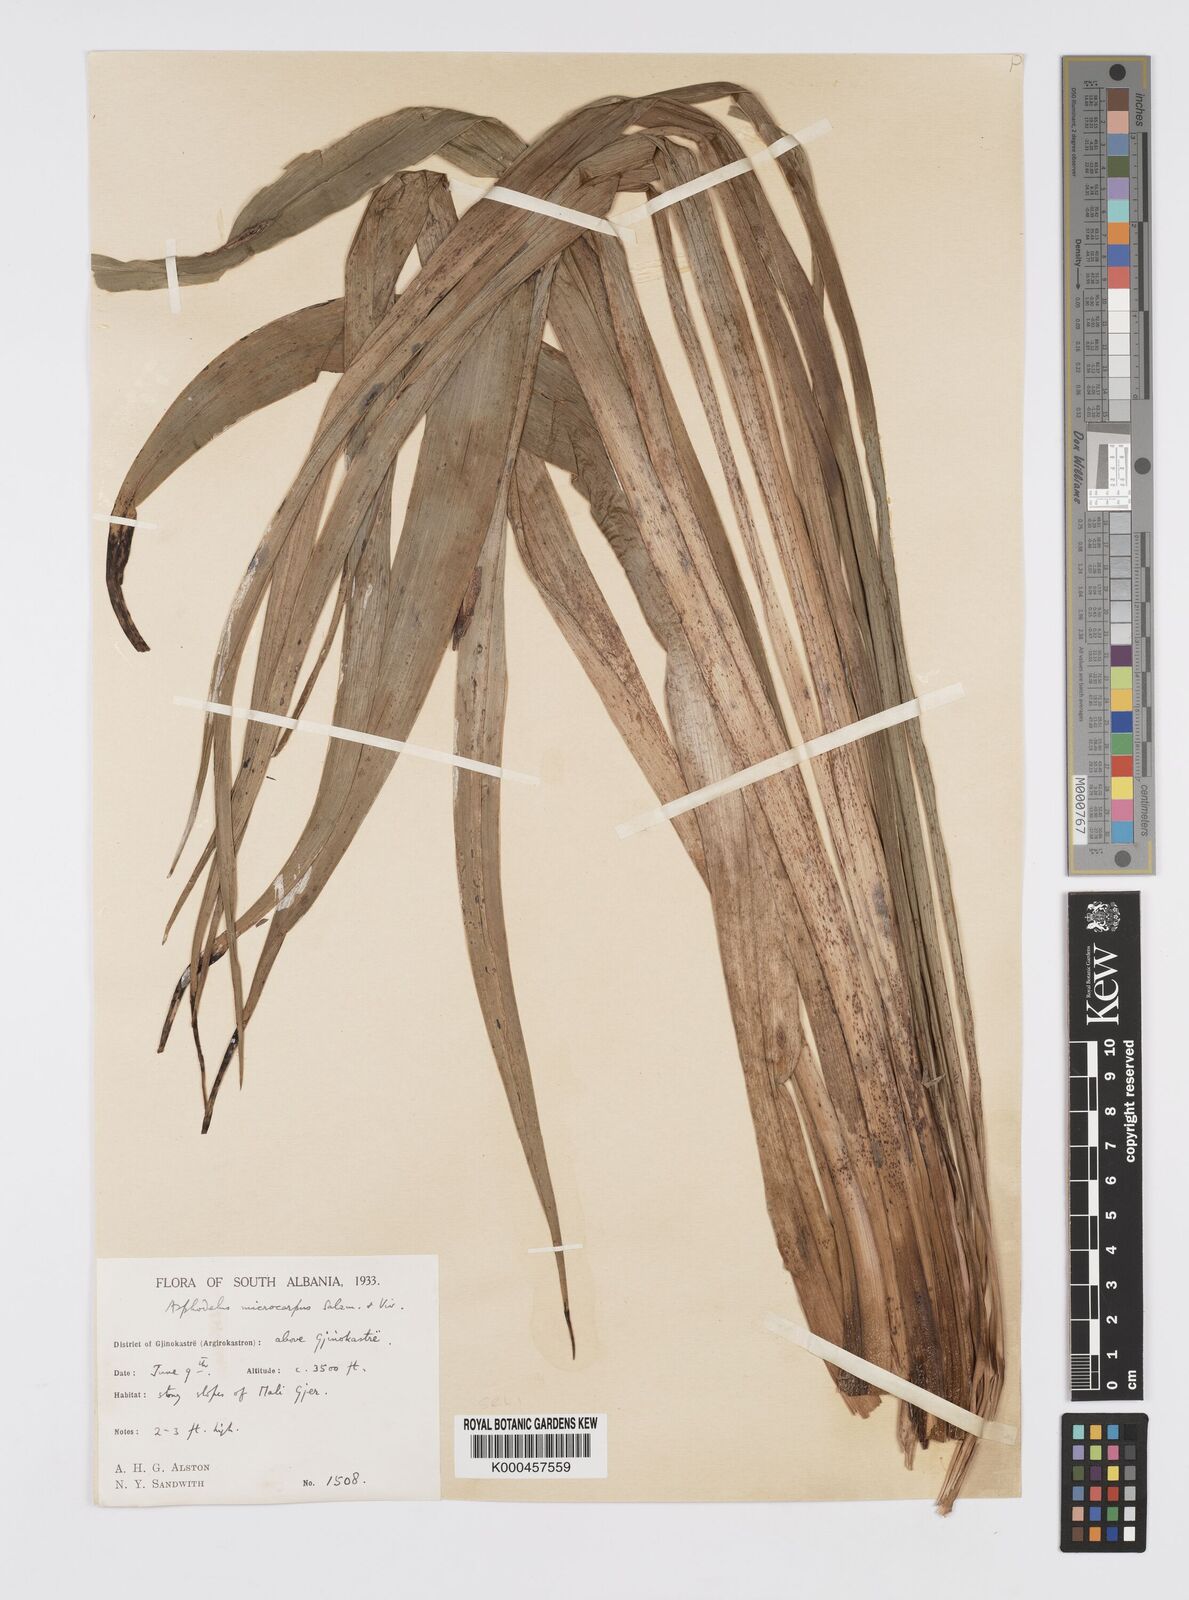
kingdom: Plantae
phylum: Tracheophyta
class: Liliopsida
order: Asparagales
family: Asphodelaceae
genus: Asphodelus
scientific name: Asphodelus aestivus
